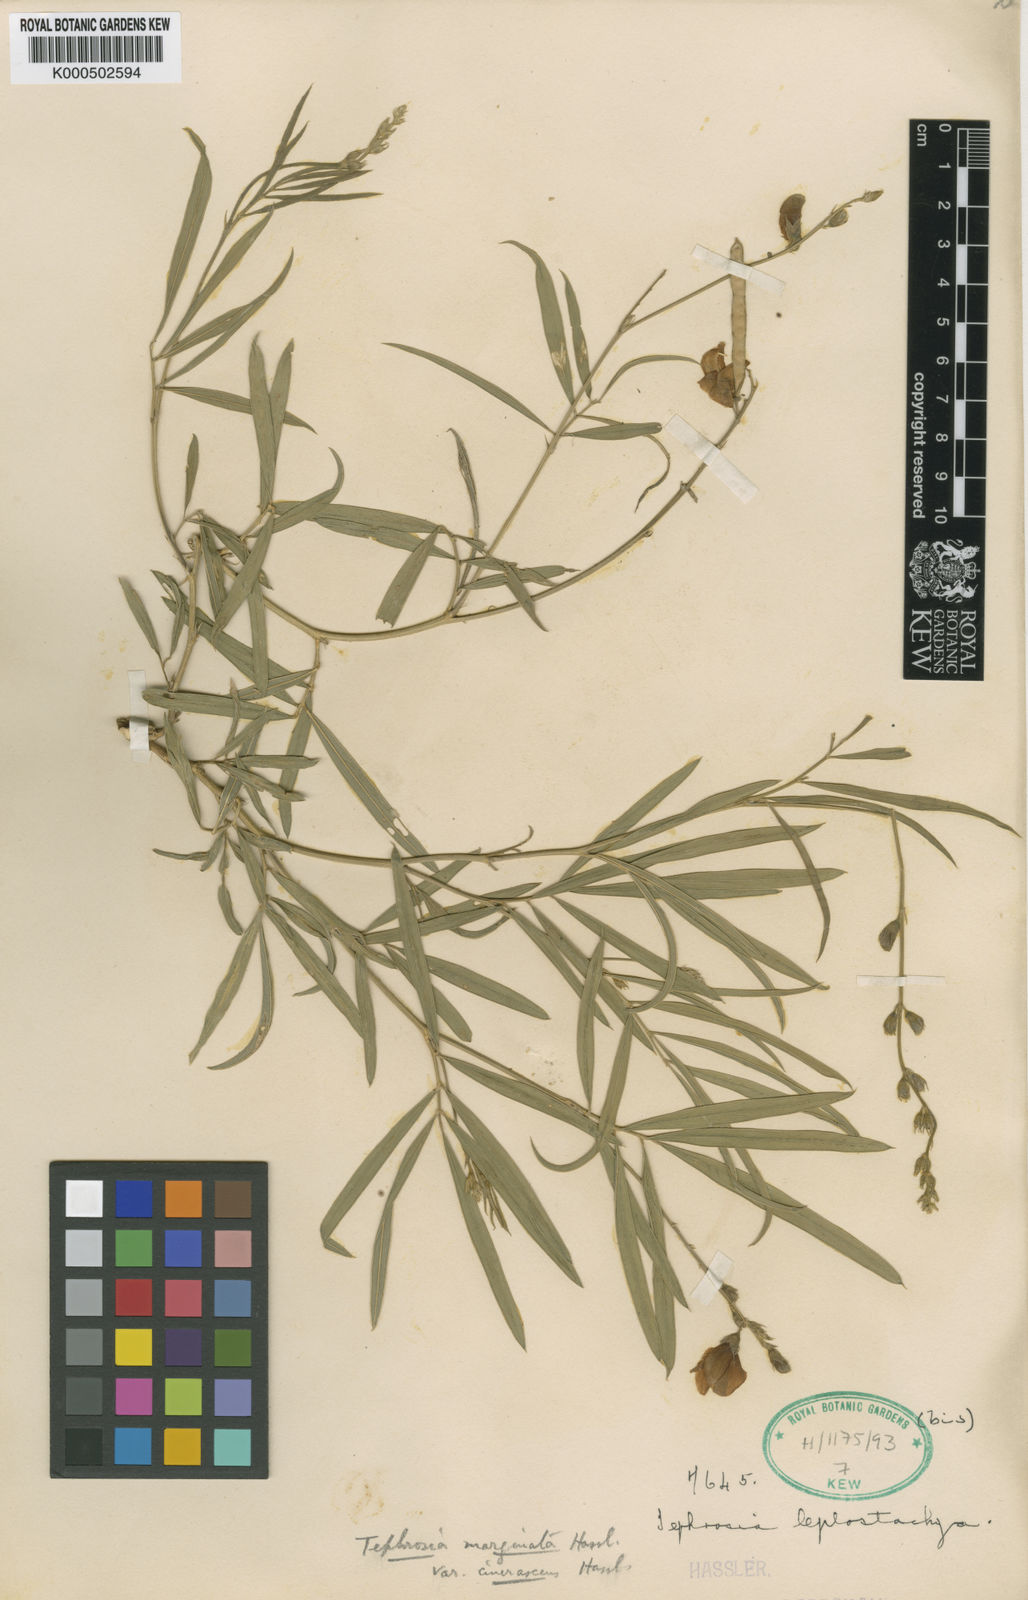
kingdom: Plantae
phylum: Tracheophyta
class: Magnoliopsida
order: Fabales
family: Fabaceae
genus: Tephrosia
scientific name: Tephrosia marginata
